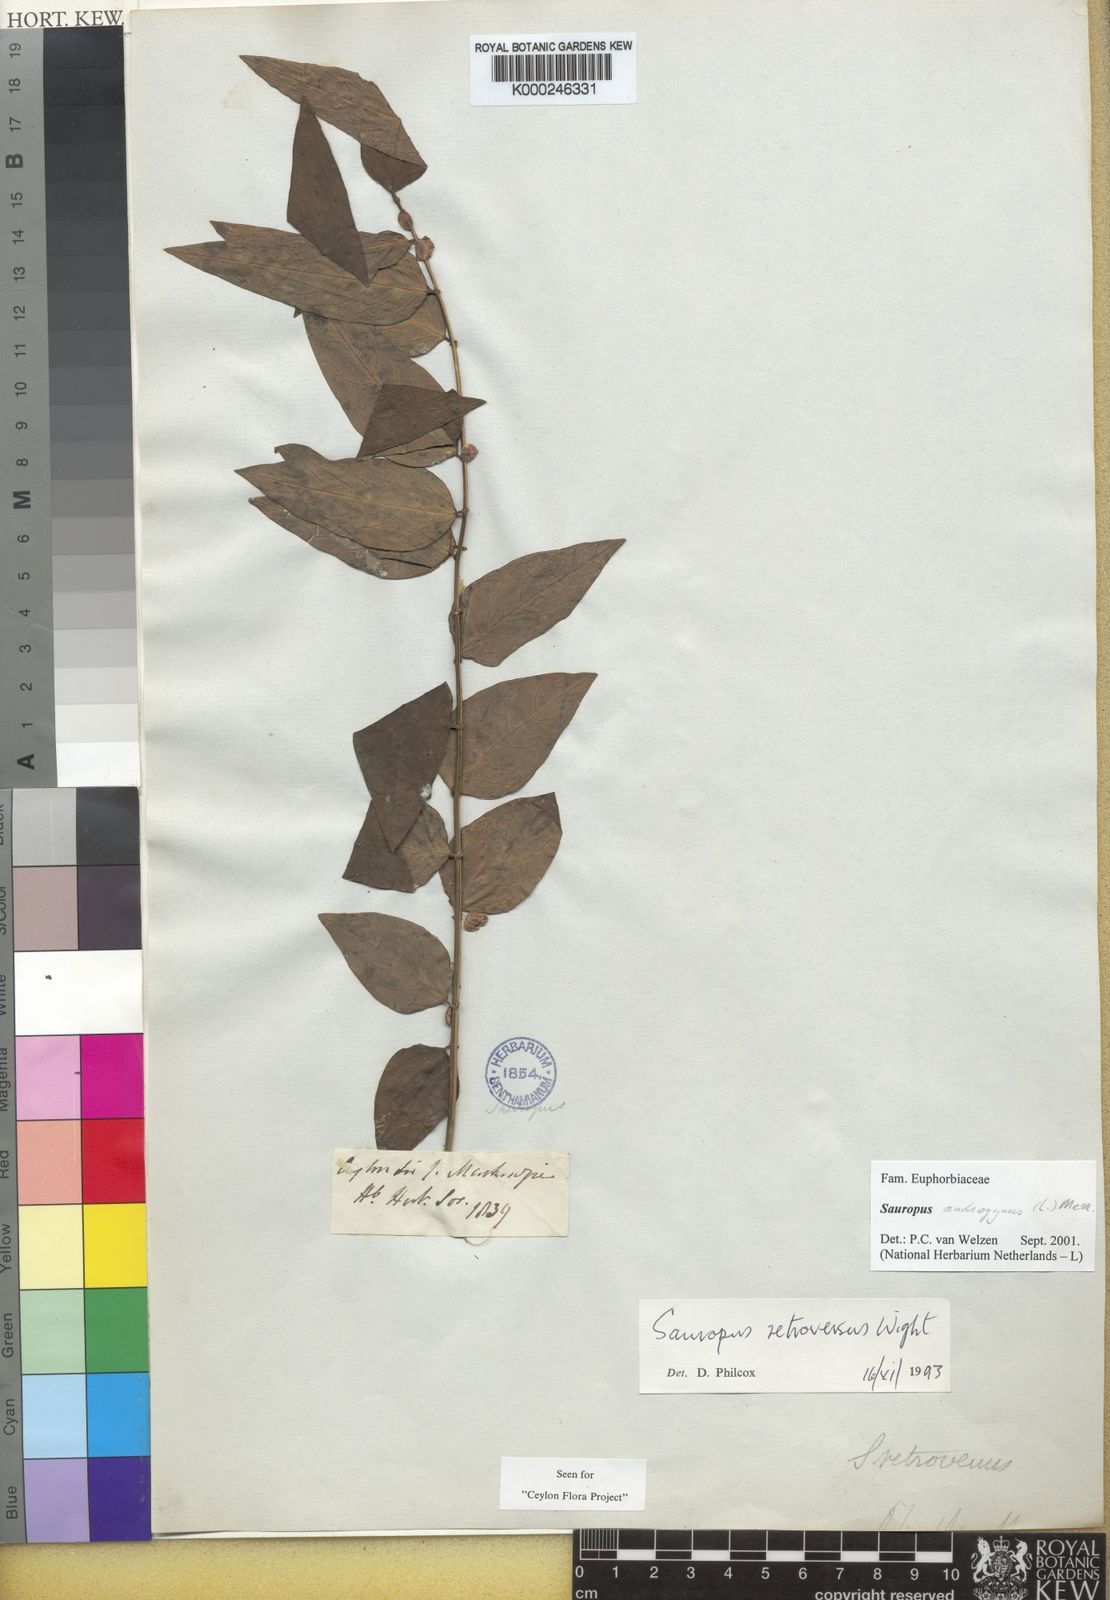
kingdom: Plantae
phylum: Tracheophyta
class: Magnoliopsida
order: Malpighiales
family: Phyllanthaceae
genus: Breynia
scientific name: Breynia androgyna
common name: Star gooseberry
